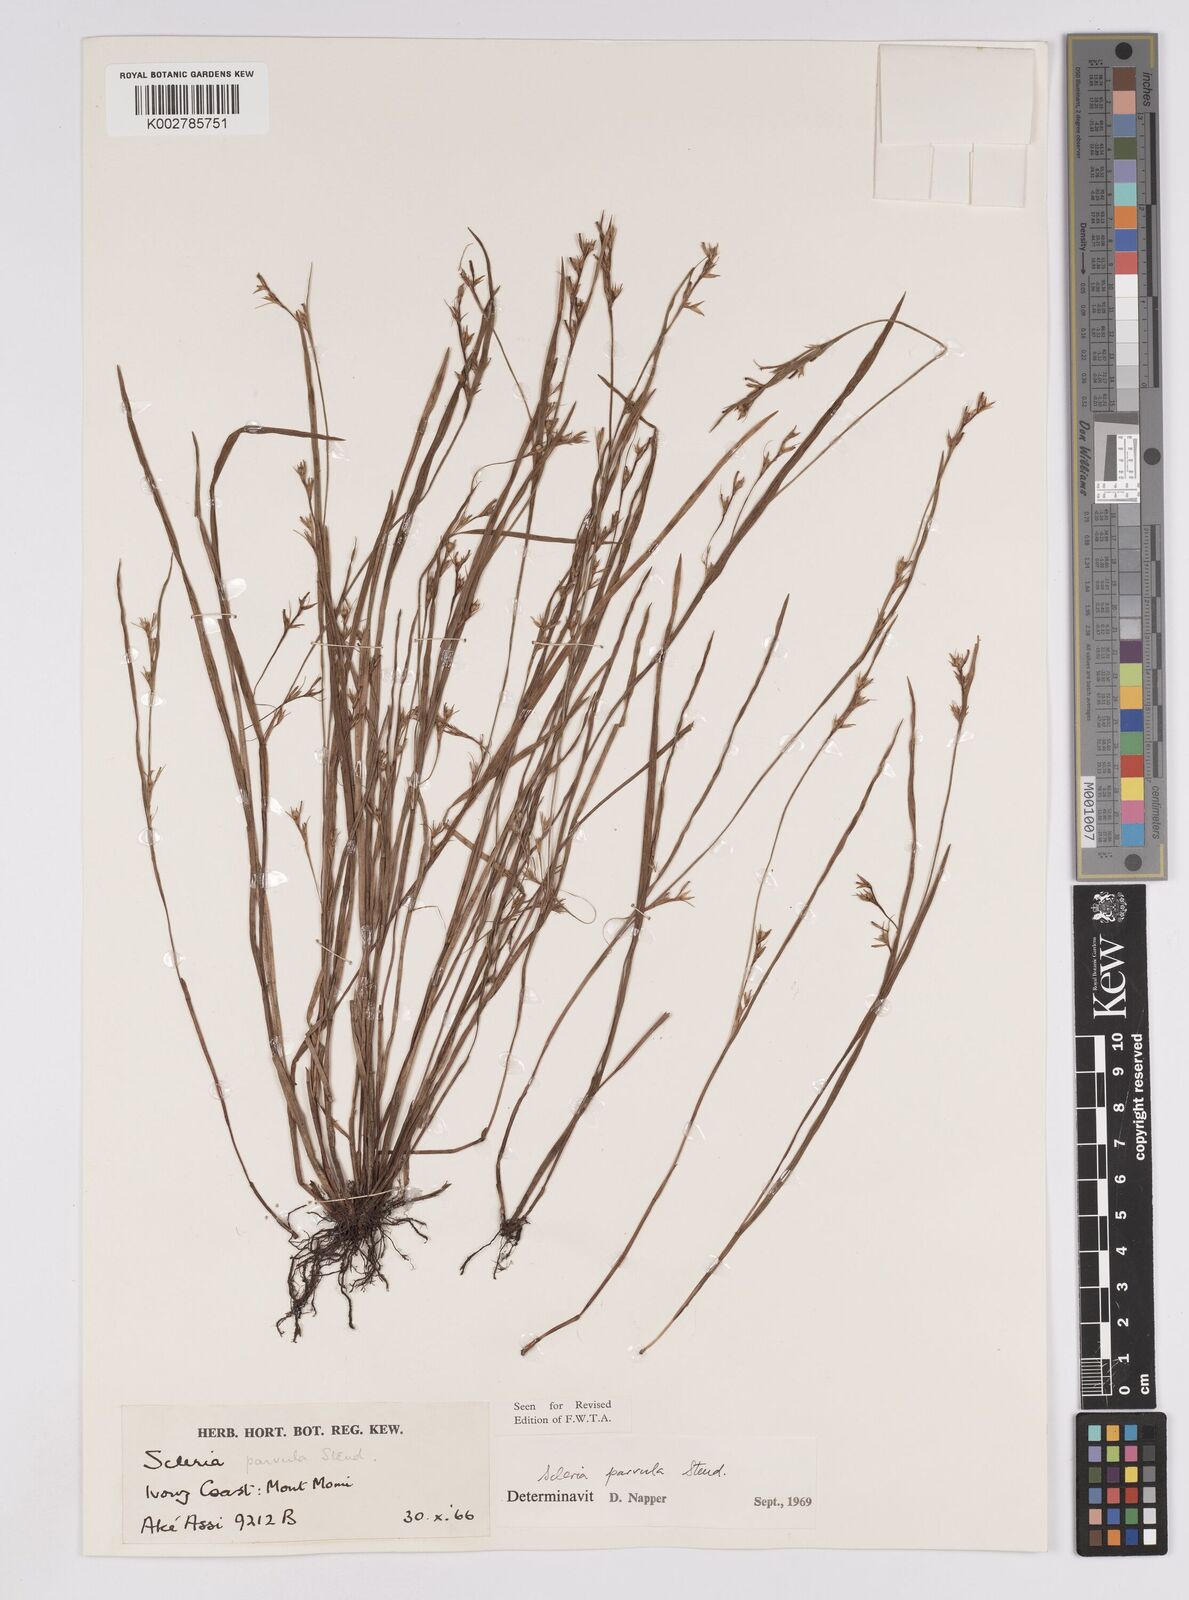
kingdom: Plantae
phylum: Tracheophyta
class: Liliopsida
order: Poales
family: Cyperaceae
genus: Scleria
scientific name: Scleria parvula
